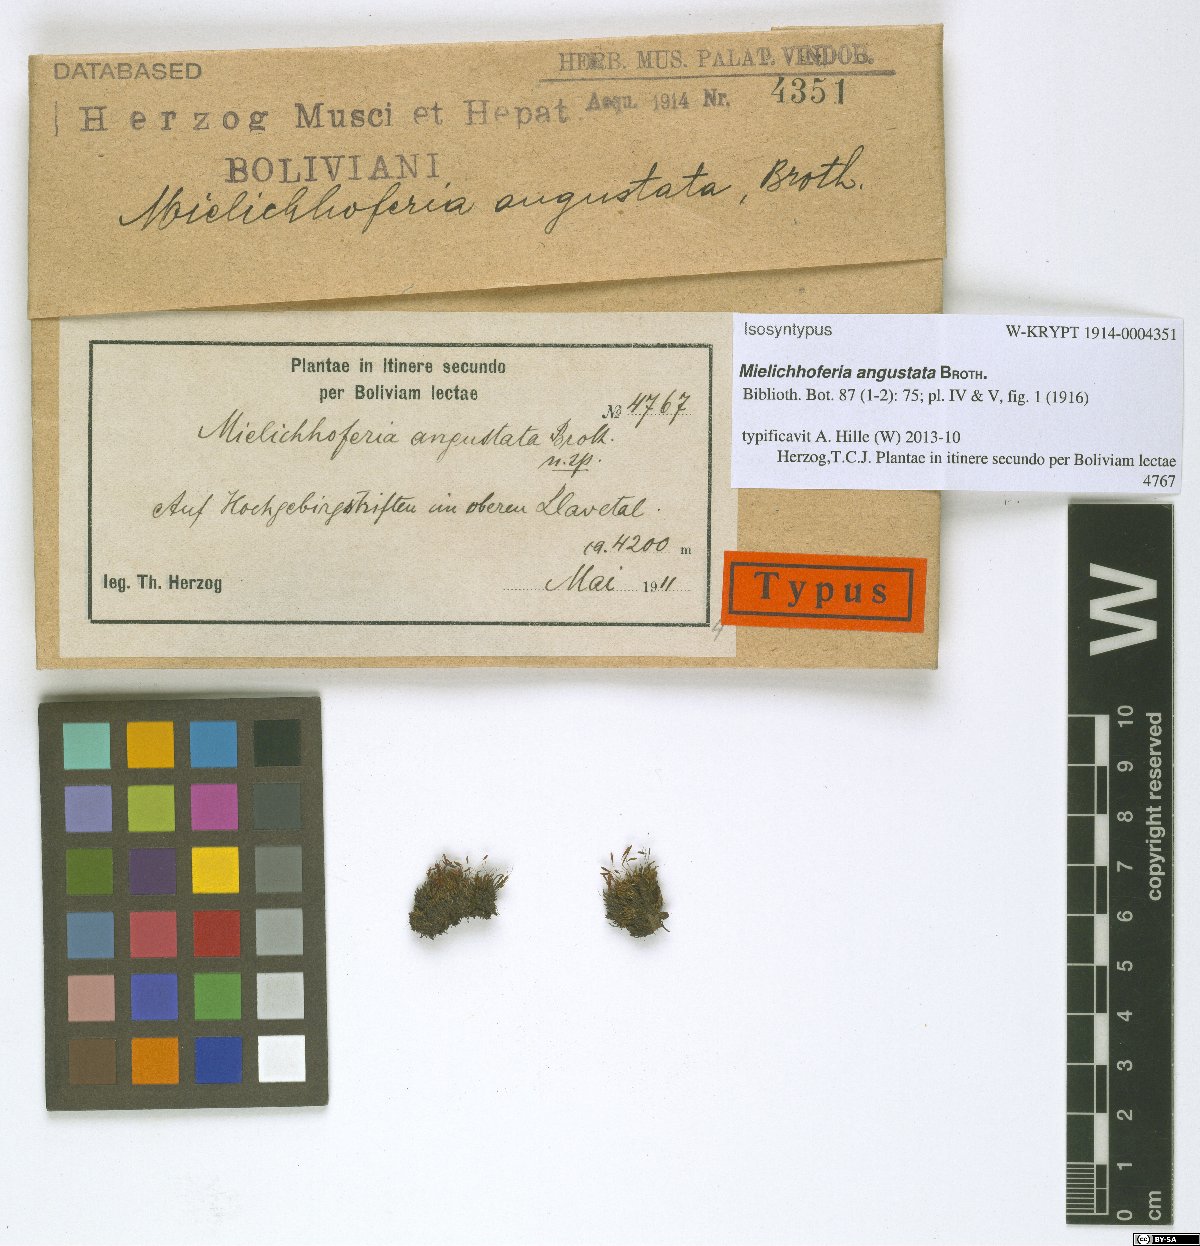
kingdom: Plantae
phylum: Bryophyta
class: Bryopsida
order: Bryales
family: Mniaceae
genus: Schizymenium
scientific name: Schizymenium clavellatum
